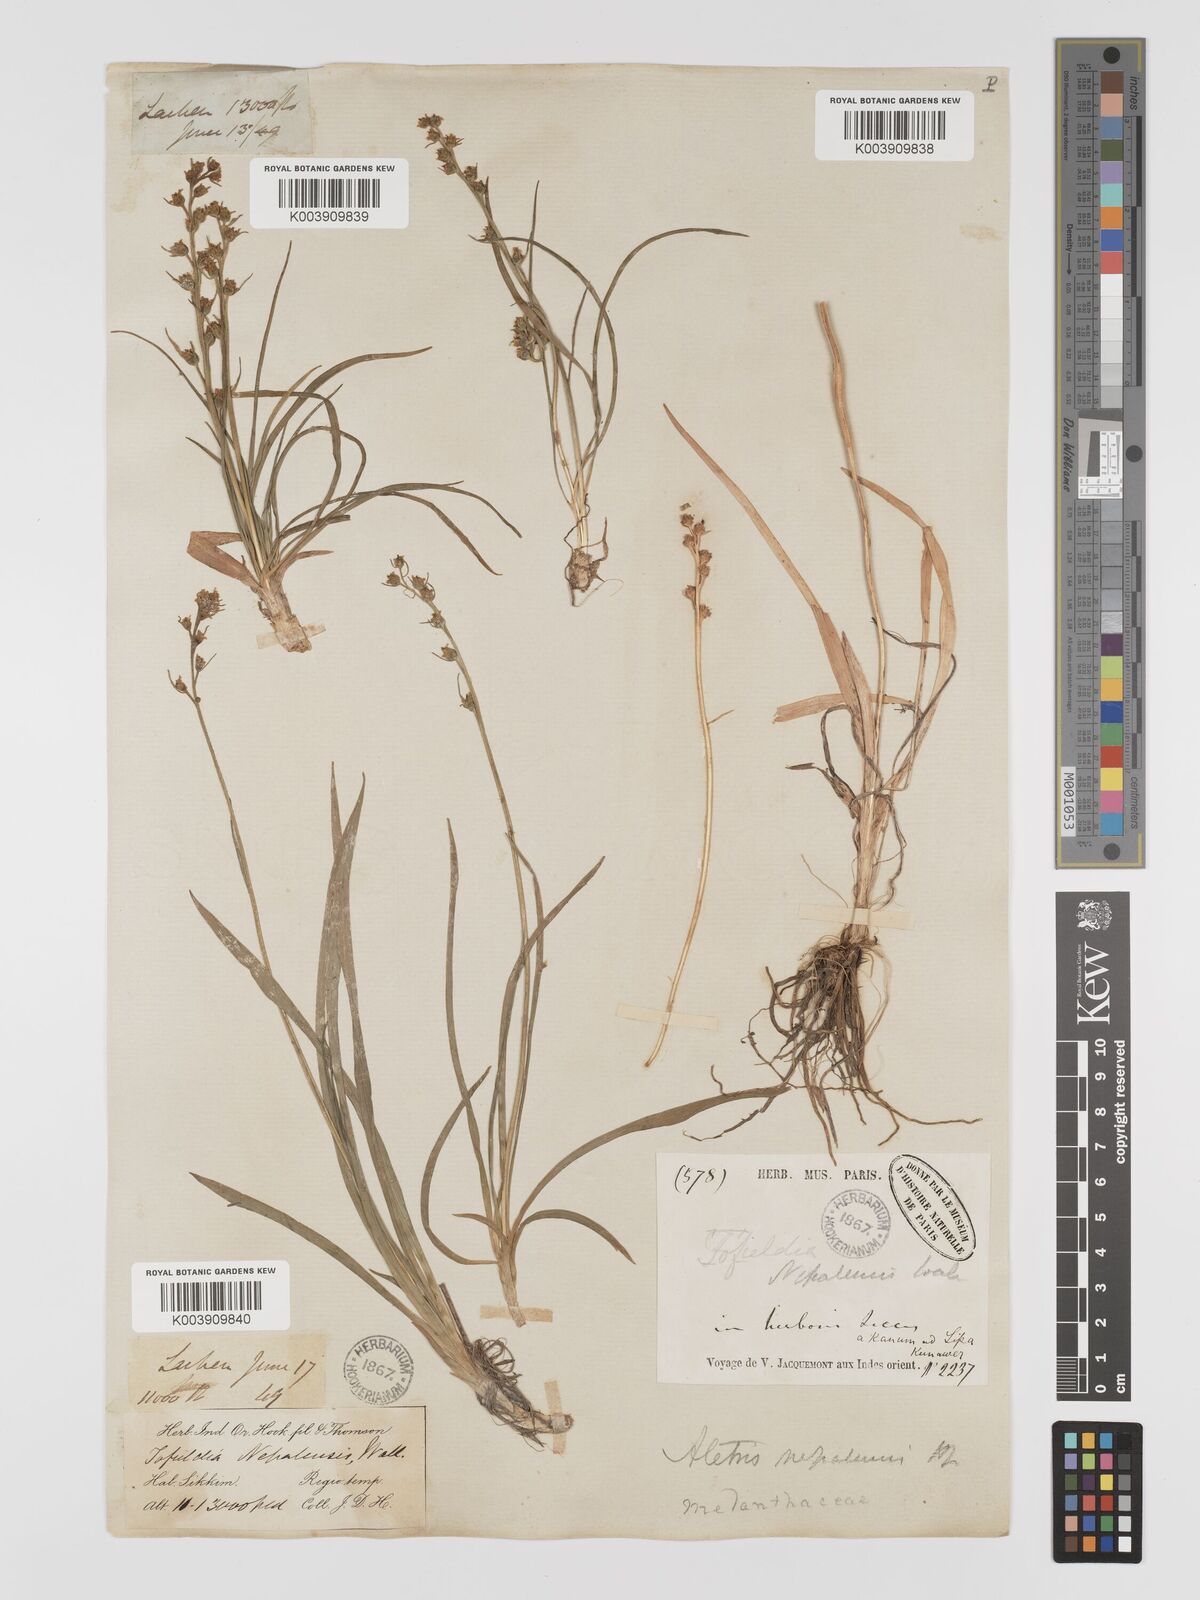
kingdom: Plantae
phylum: Tracheophyta
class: Liliopsida
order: Dioscoreales
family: Nartheciaceae
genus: Aletris
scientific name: Aletris pauciflora
